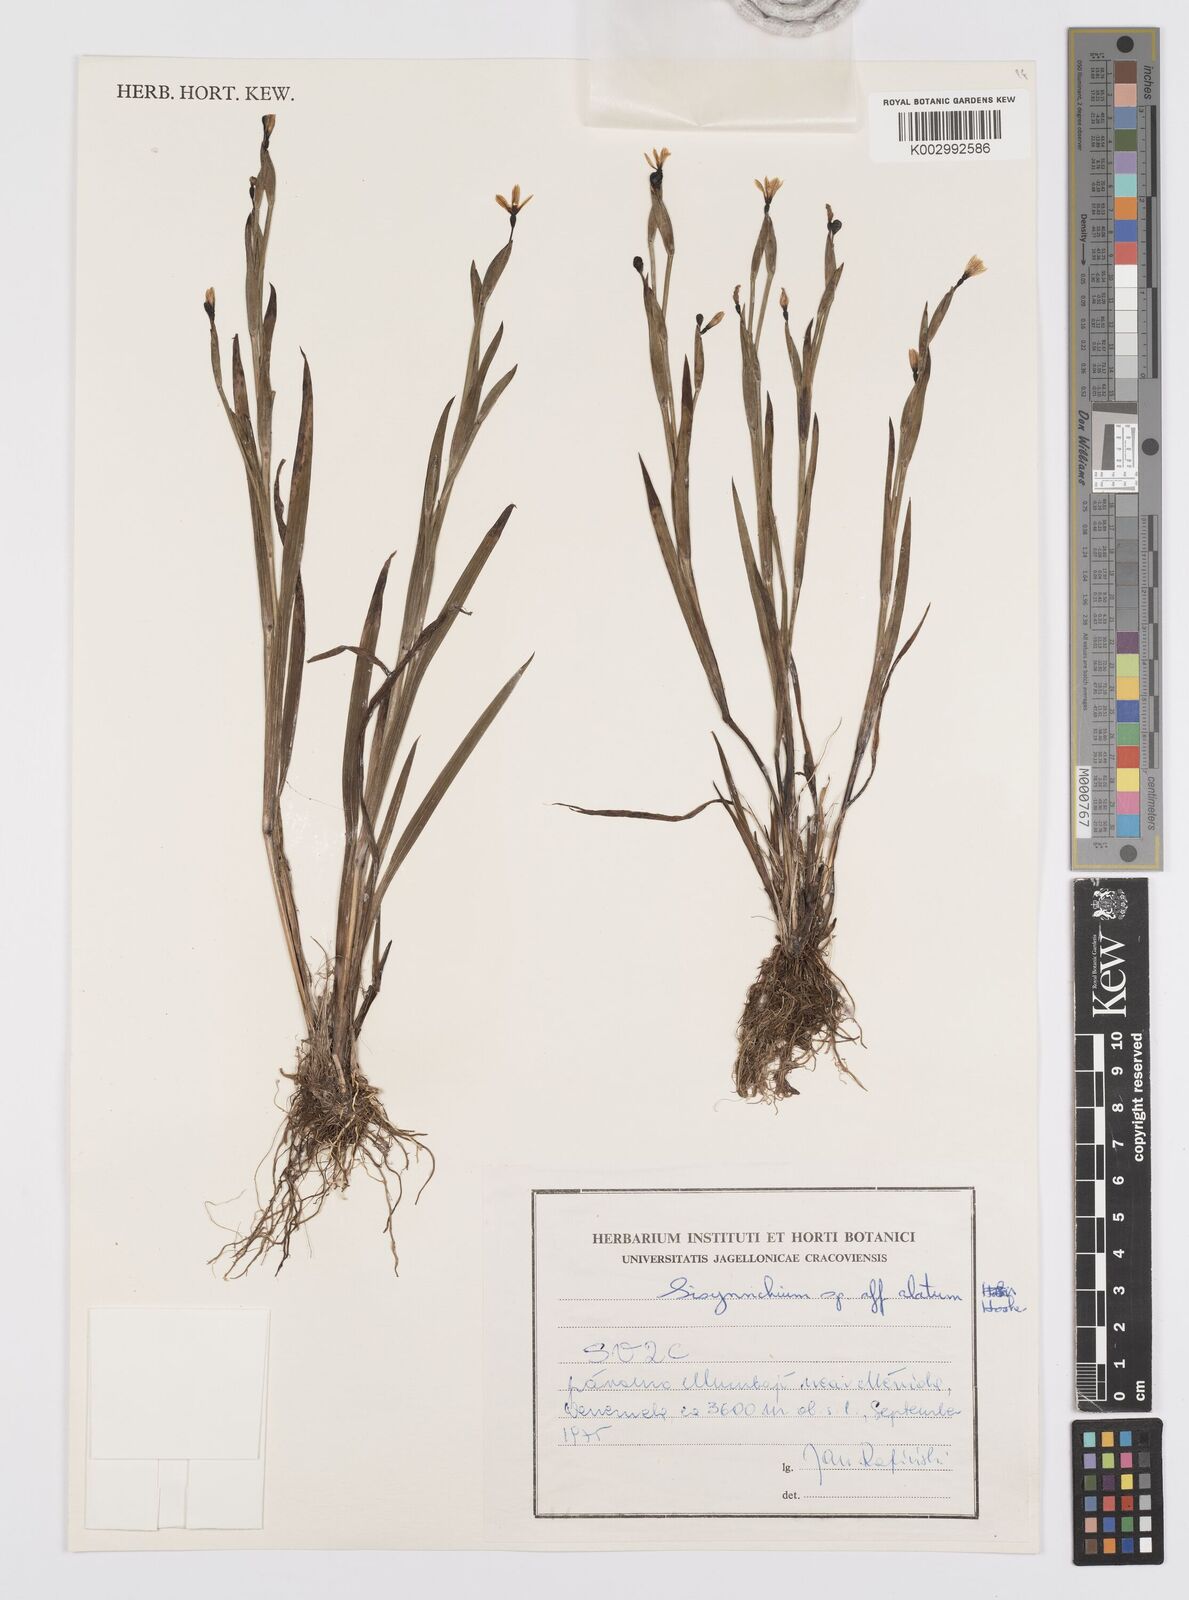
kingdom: Plantae
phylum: Tracheophyta
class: Liliopsida
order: Asparagales
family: Iridaceae
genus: Sisyrinchium
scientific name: Sisyrinchium vaginatum
